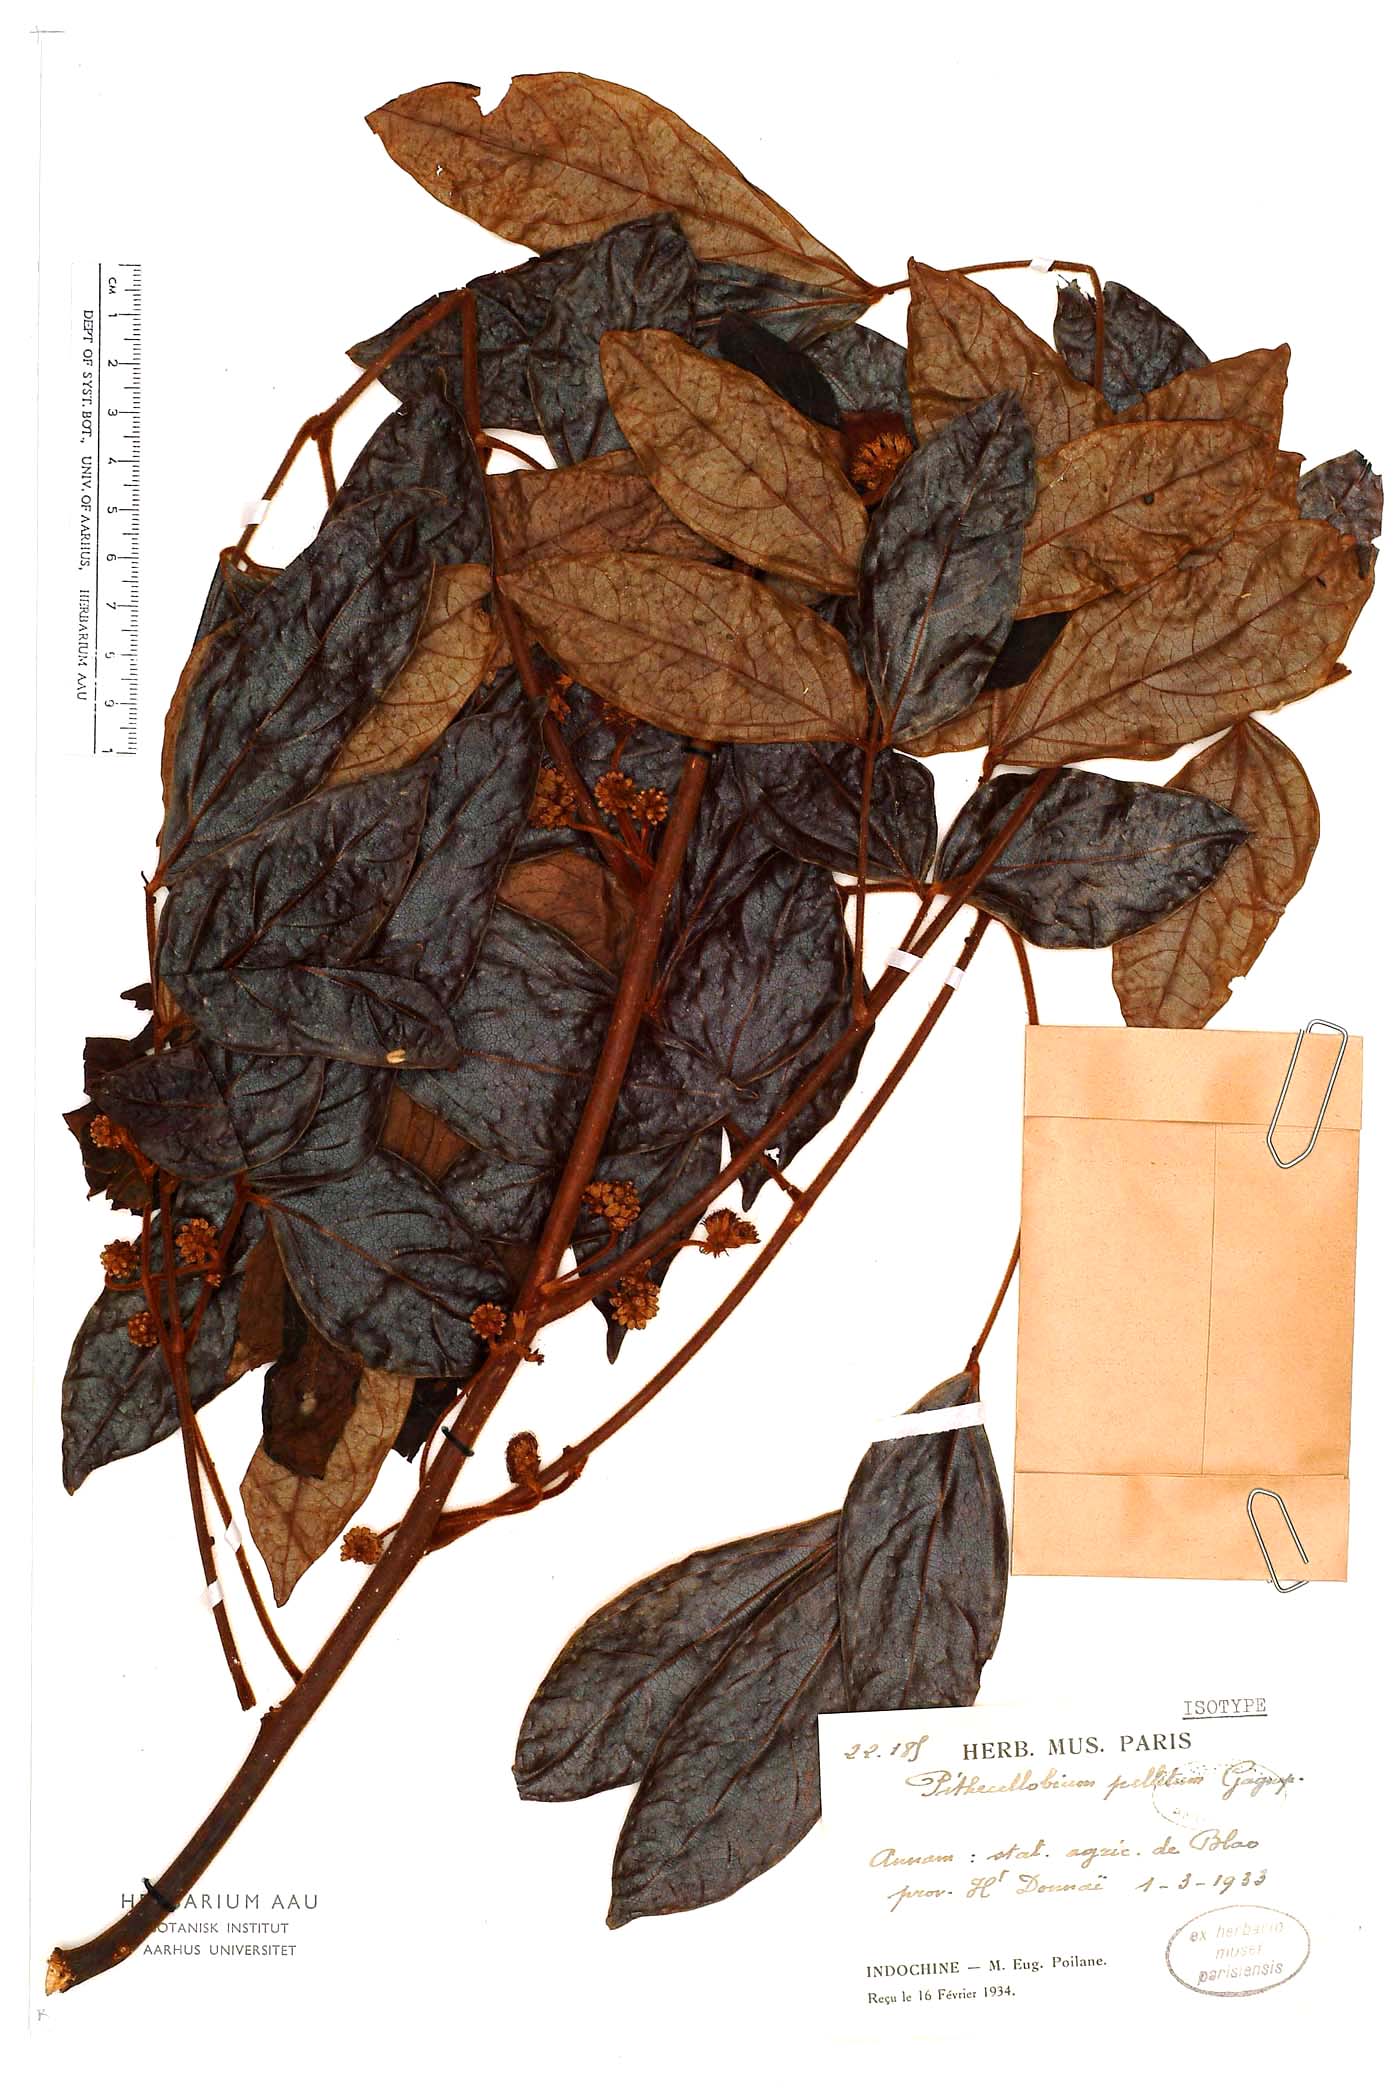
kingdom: Plantae
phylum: Tracheophyta
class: Magnoliopsida
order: Fabales
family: Fabaceae
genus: Archidendron
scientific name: Archidendron pellitum
